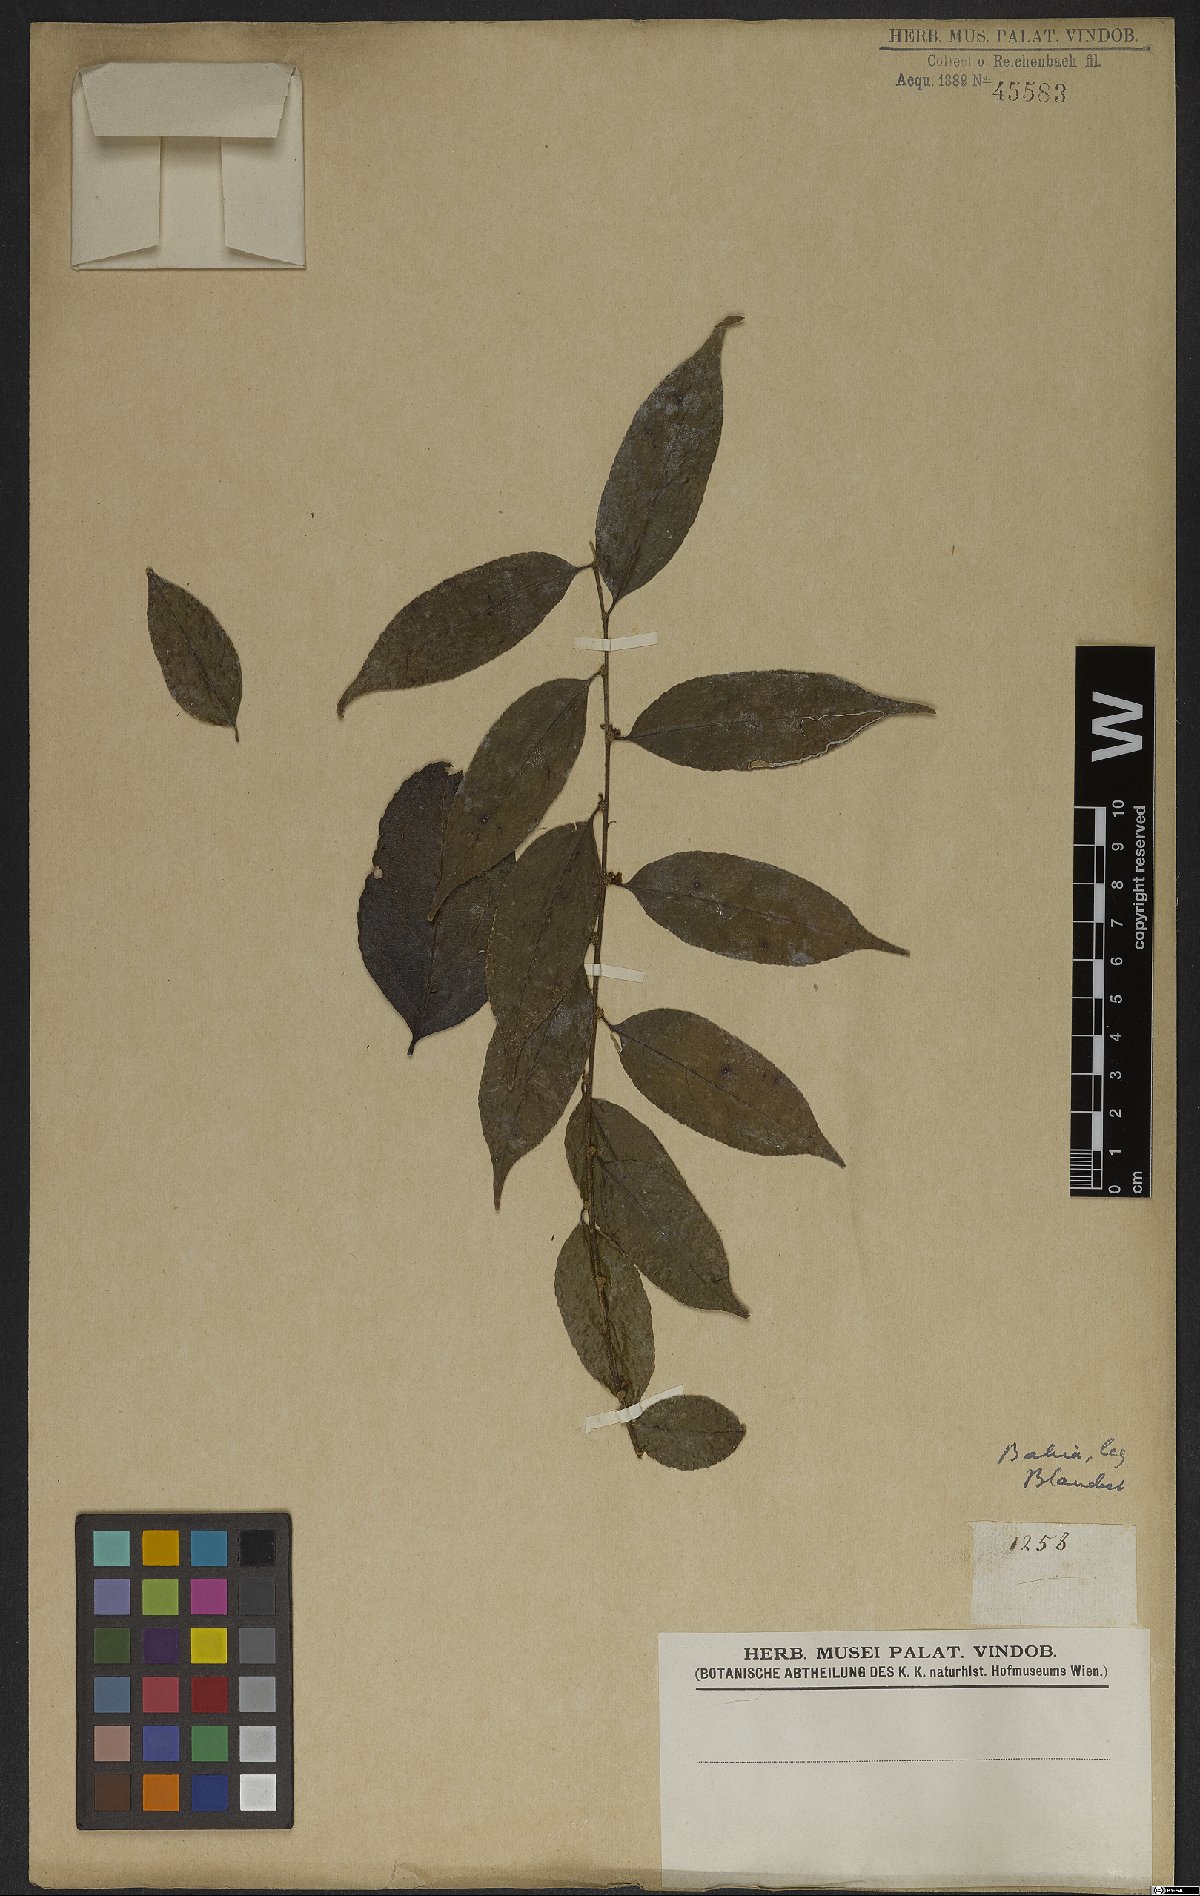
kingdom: Plantae
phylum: Tracheophyta
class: Magnoliopsida
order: Malpighiales
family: Salicaceae
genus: Casearia
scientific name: Casearia sylvestris
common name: Wild sage
